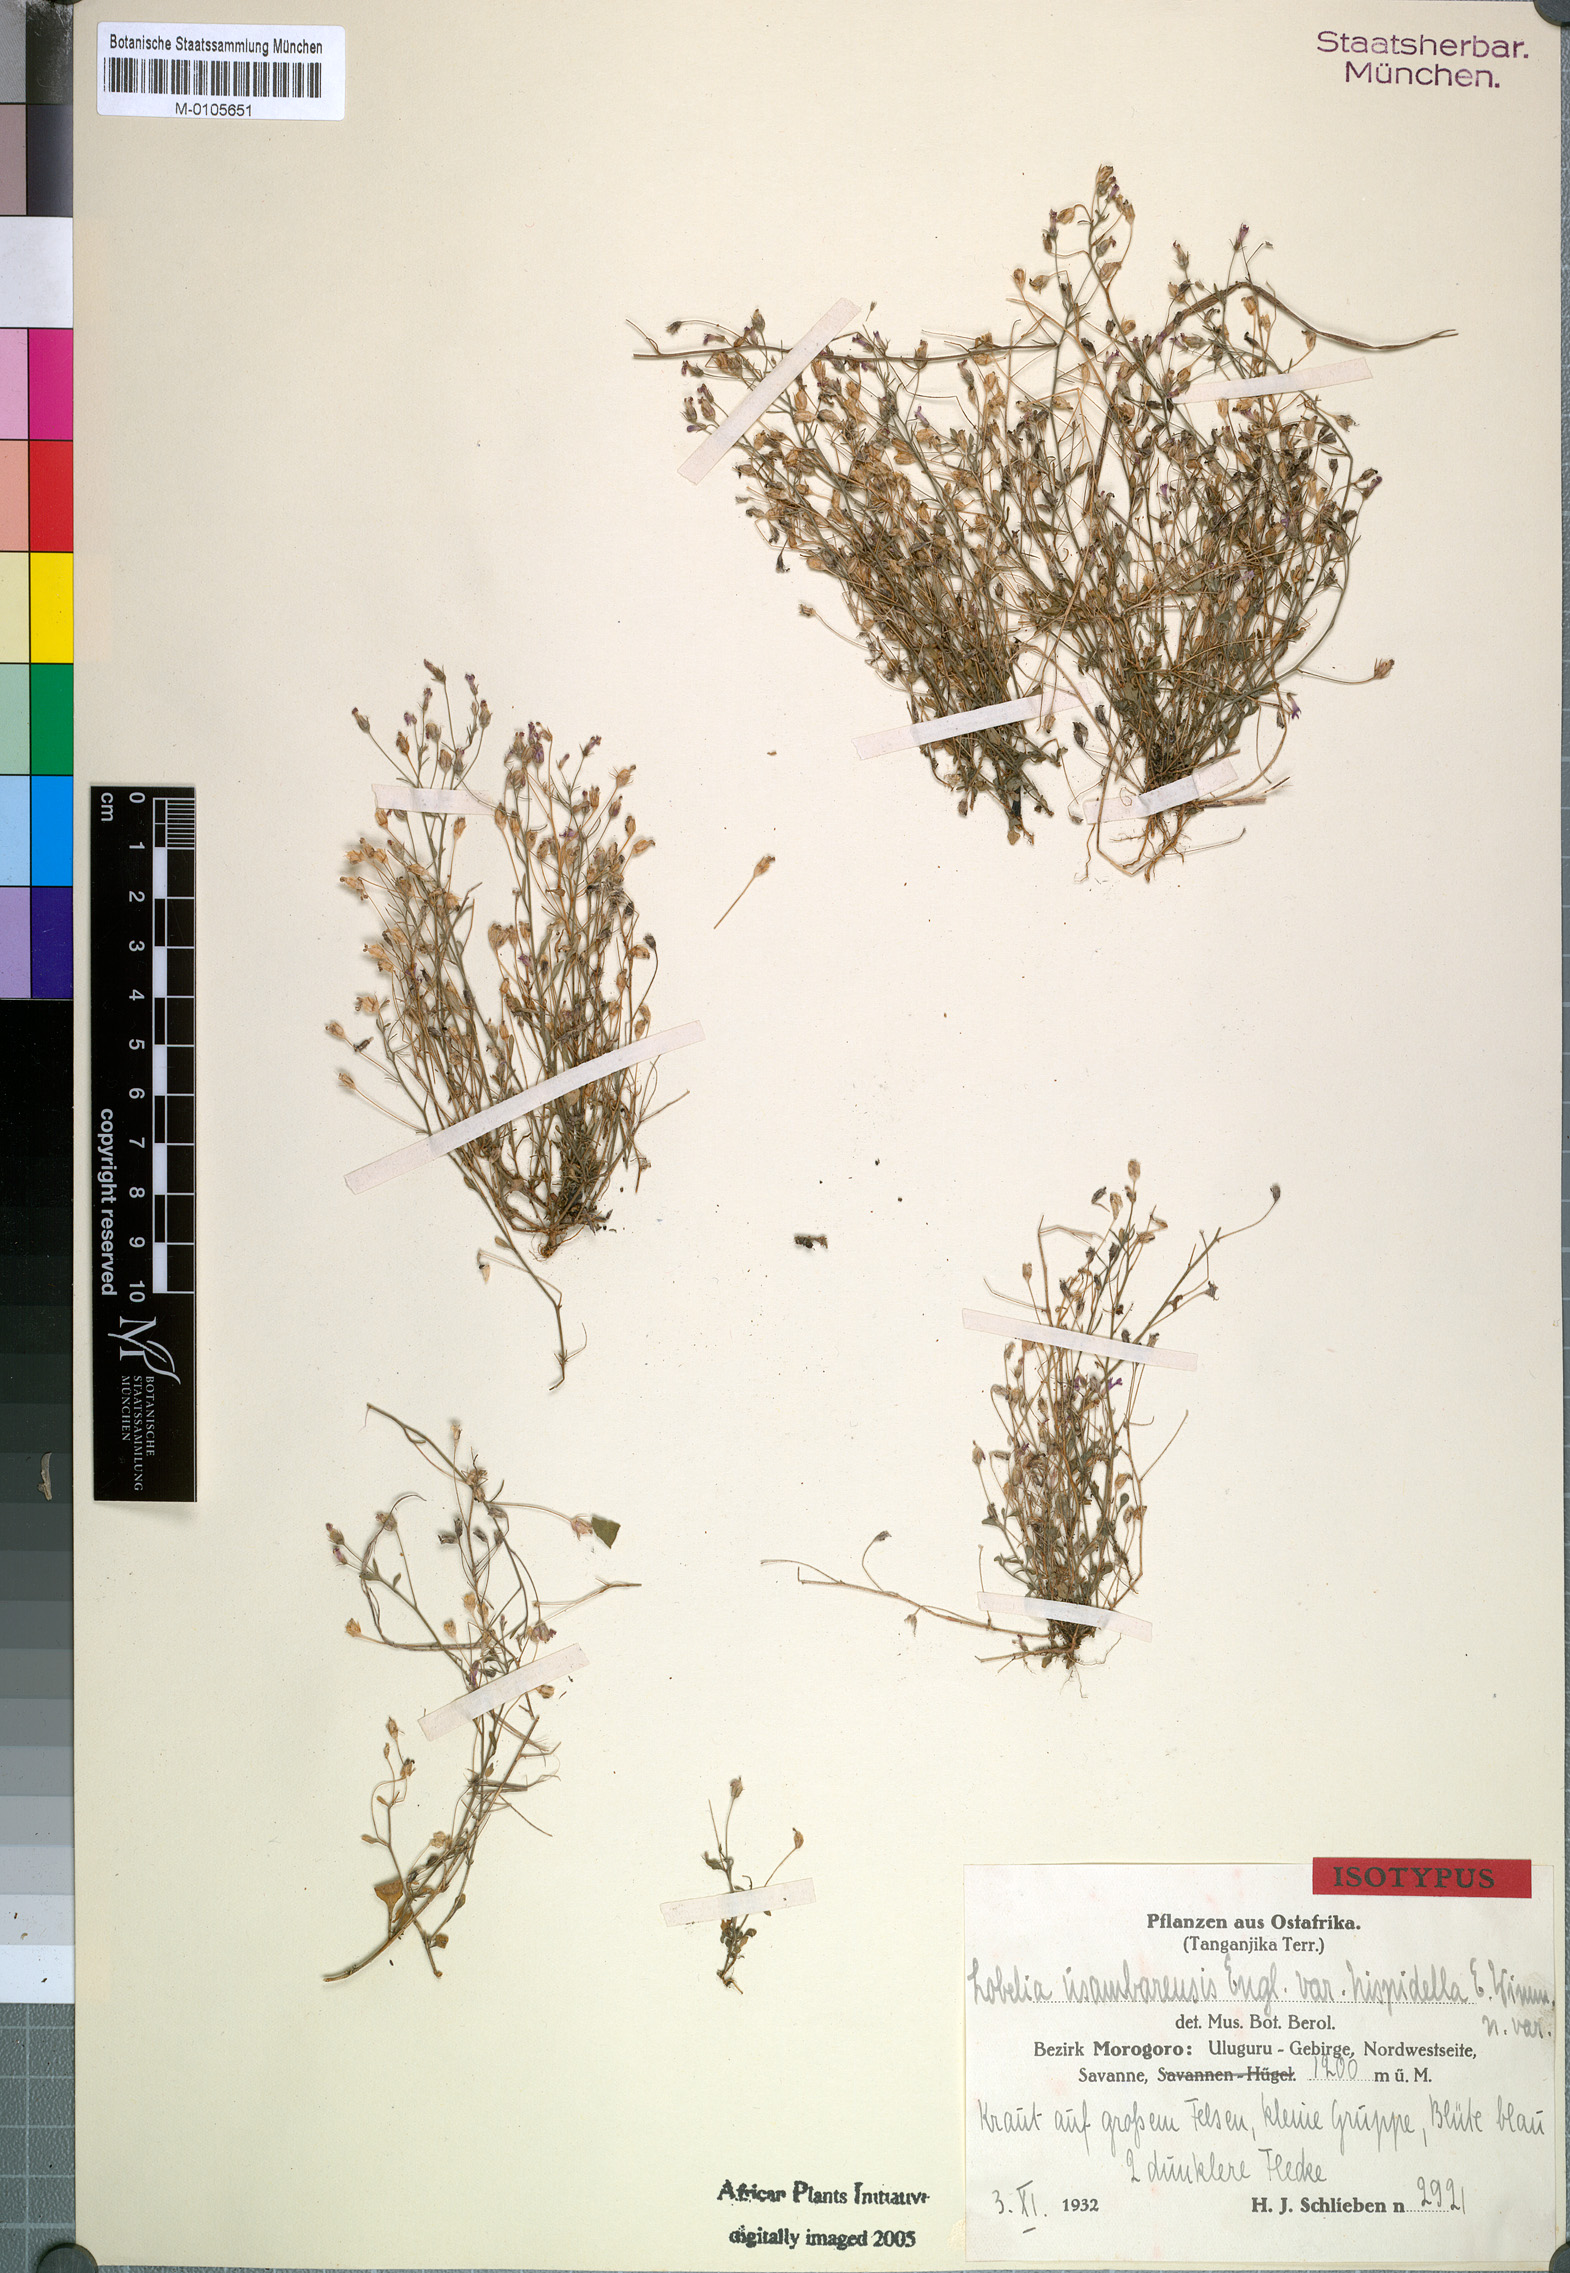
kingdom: Plantae
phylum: Tracheophyta
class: Magnoliopsida
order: Asterales
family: Campanulaceae
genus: Lobelia
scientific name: Lobelia trullifolia
